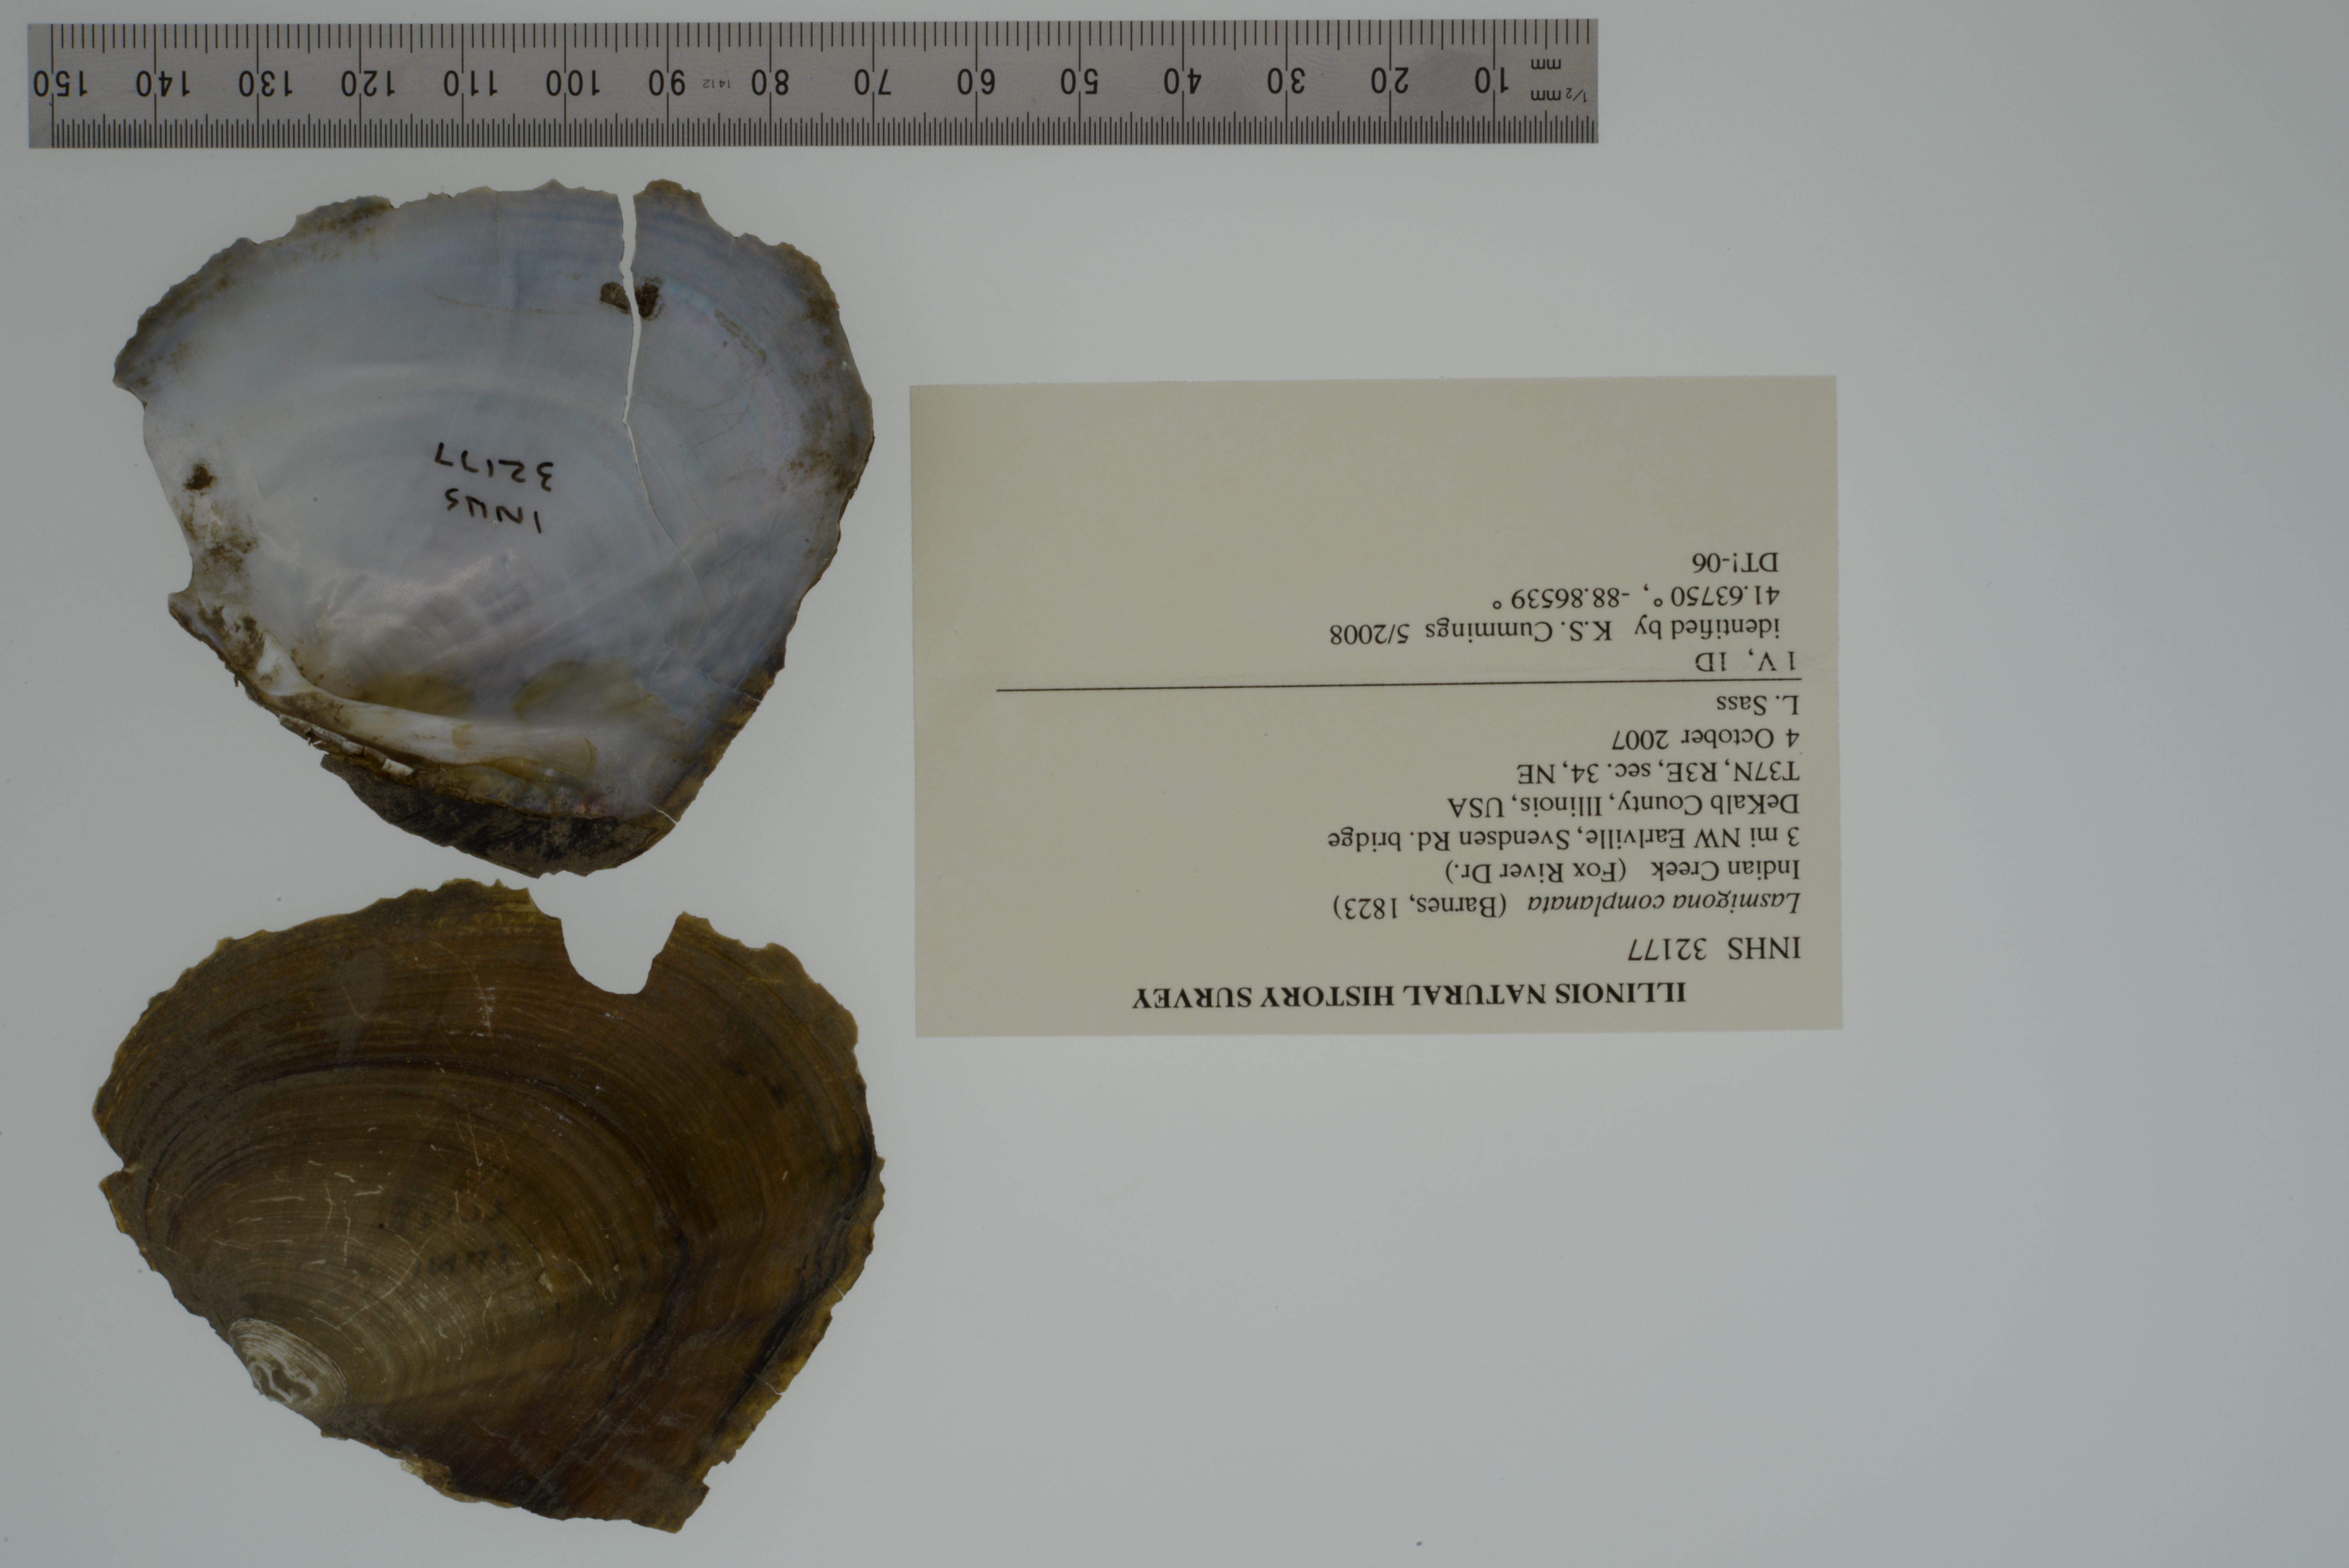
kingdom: Animalia
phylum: Mollusca
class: Bivalvia
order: Unionida
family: Unionidae
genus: Lasmigona
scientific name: Lasmigona complanata
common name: White heelsplitter
